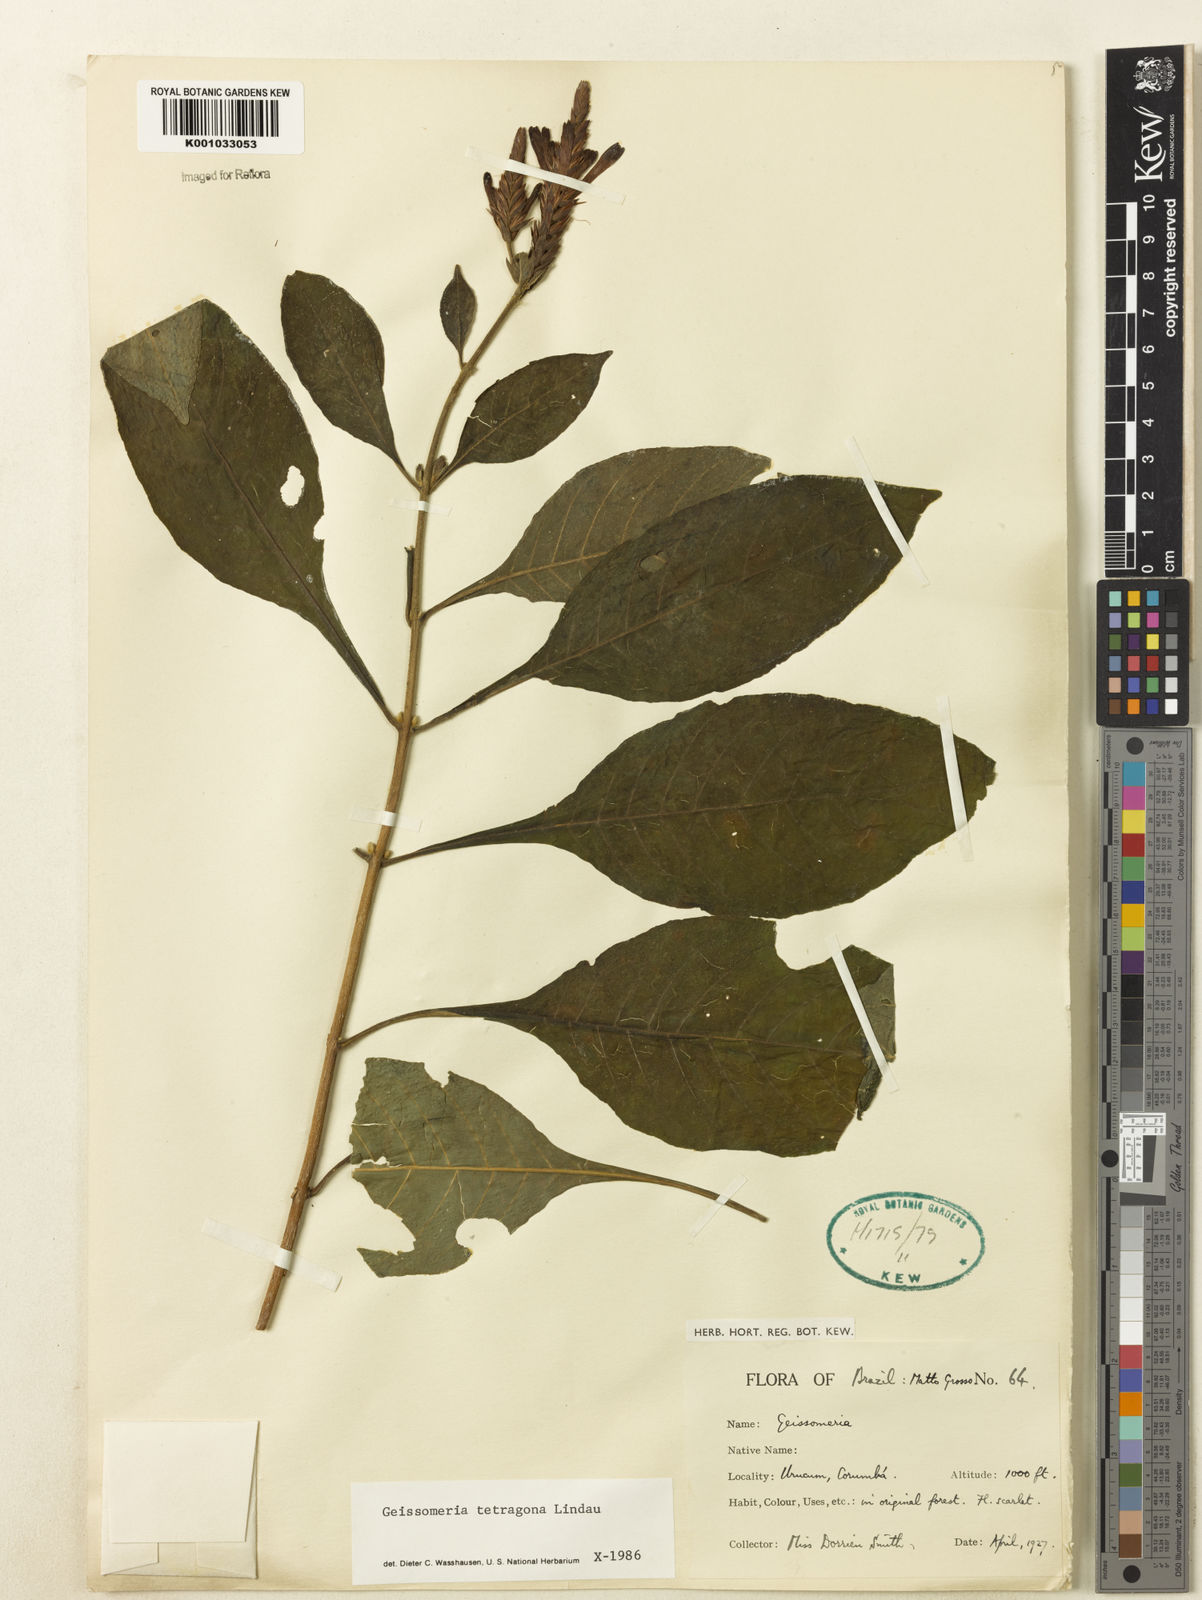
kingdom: Plantae
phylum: Tracheophyta
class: Magnoliopsida
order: Lamiales
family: Acanthaceae
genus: Aphelandra
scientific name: Aphelandra longiflora
